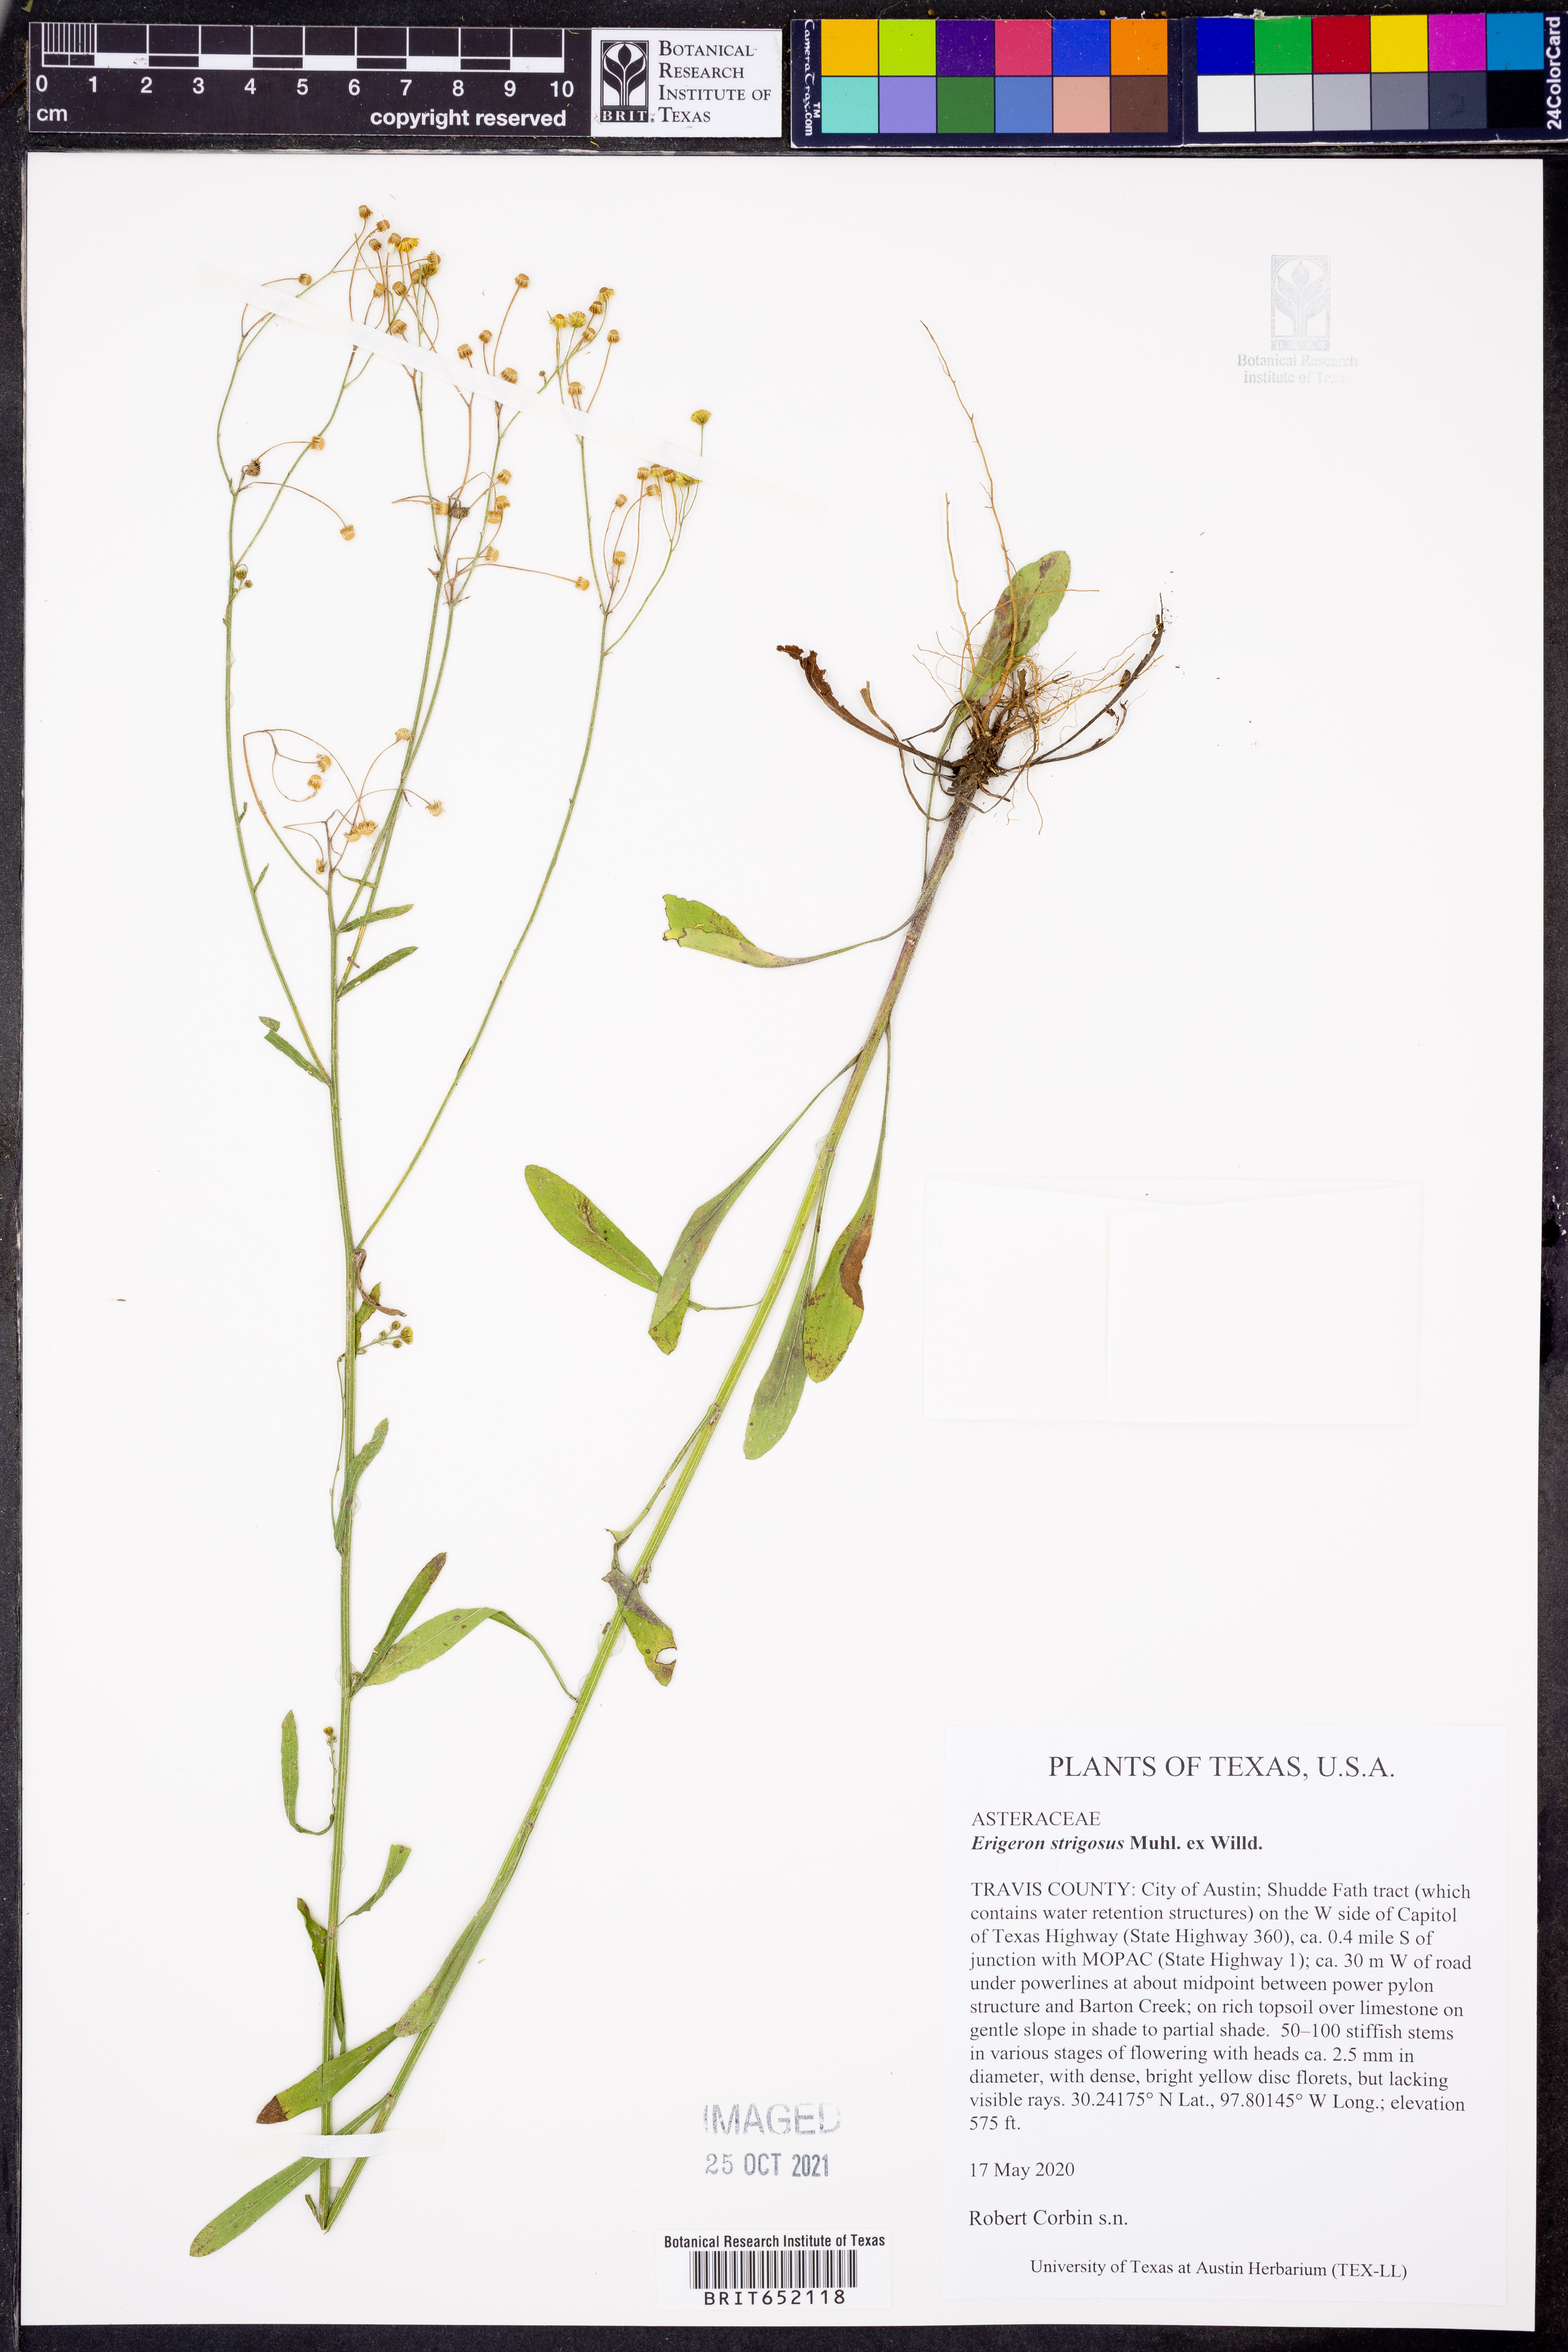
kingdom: Plantae
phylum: Tracheophyta
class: Magnoliopsida
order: Asterales
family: Asteraceae
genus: Erigeron
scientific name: Erigeron strigosus
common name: Common eastern fleabane
